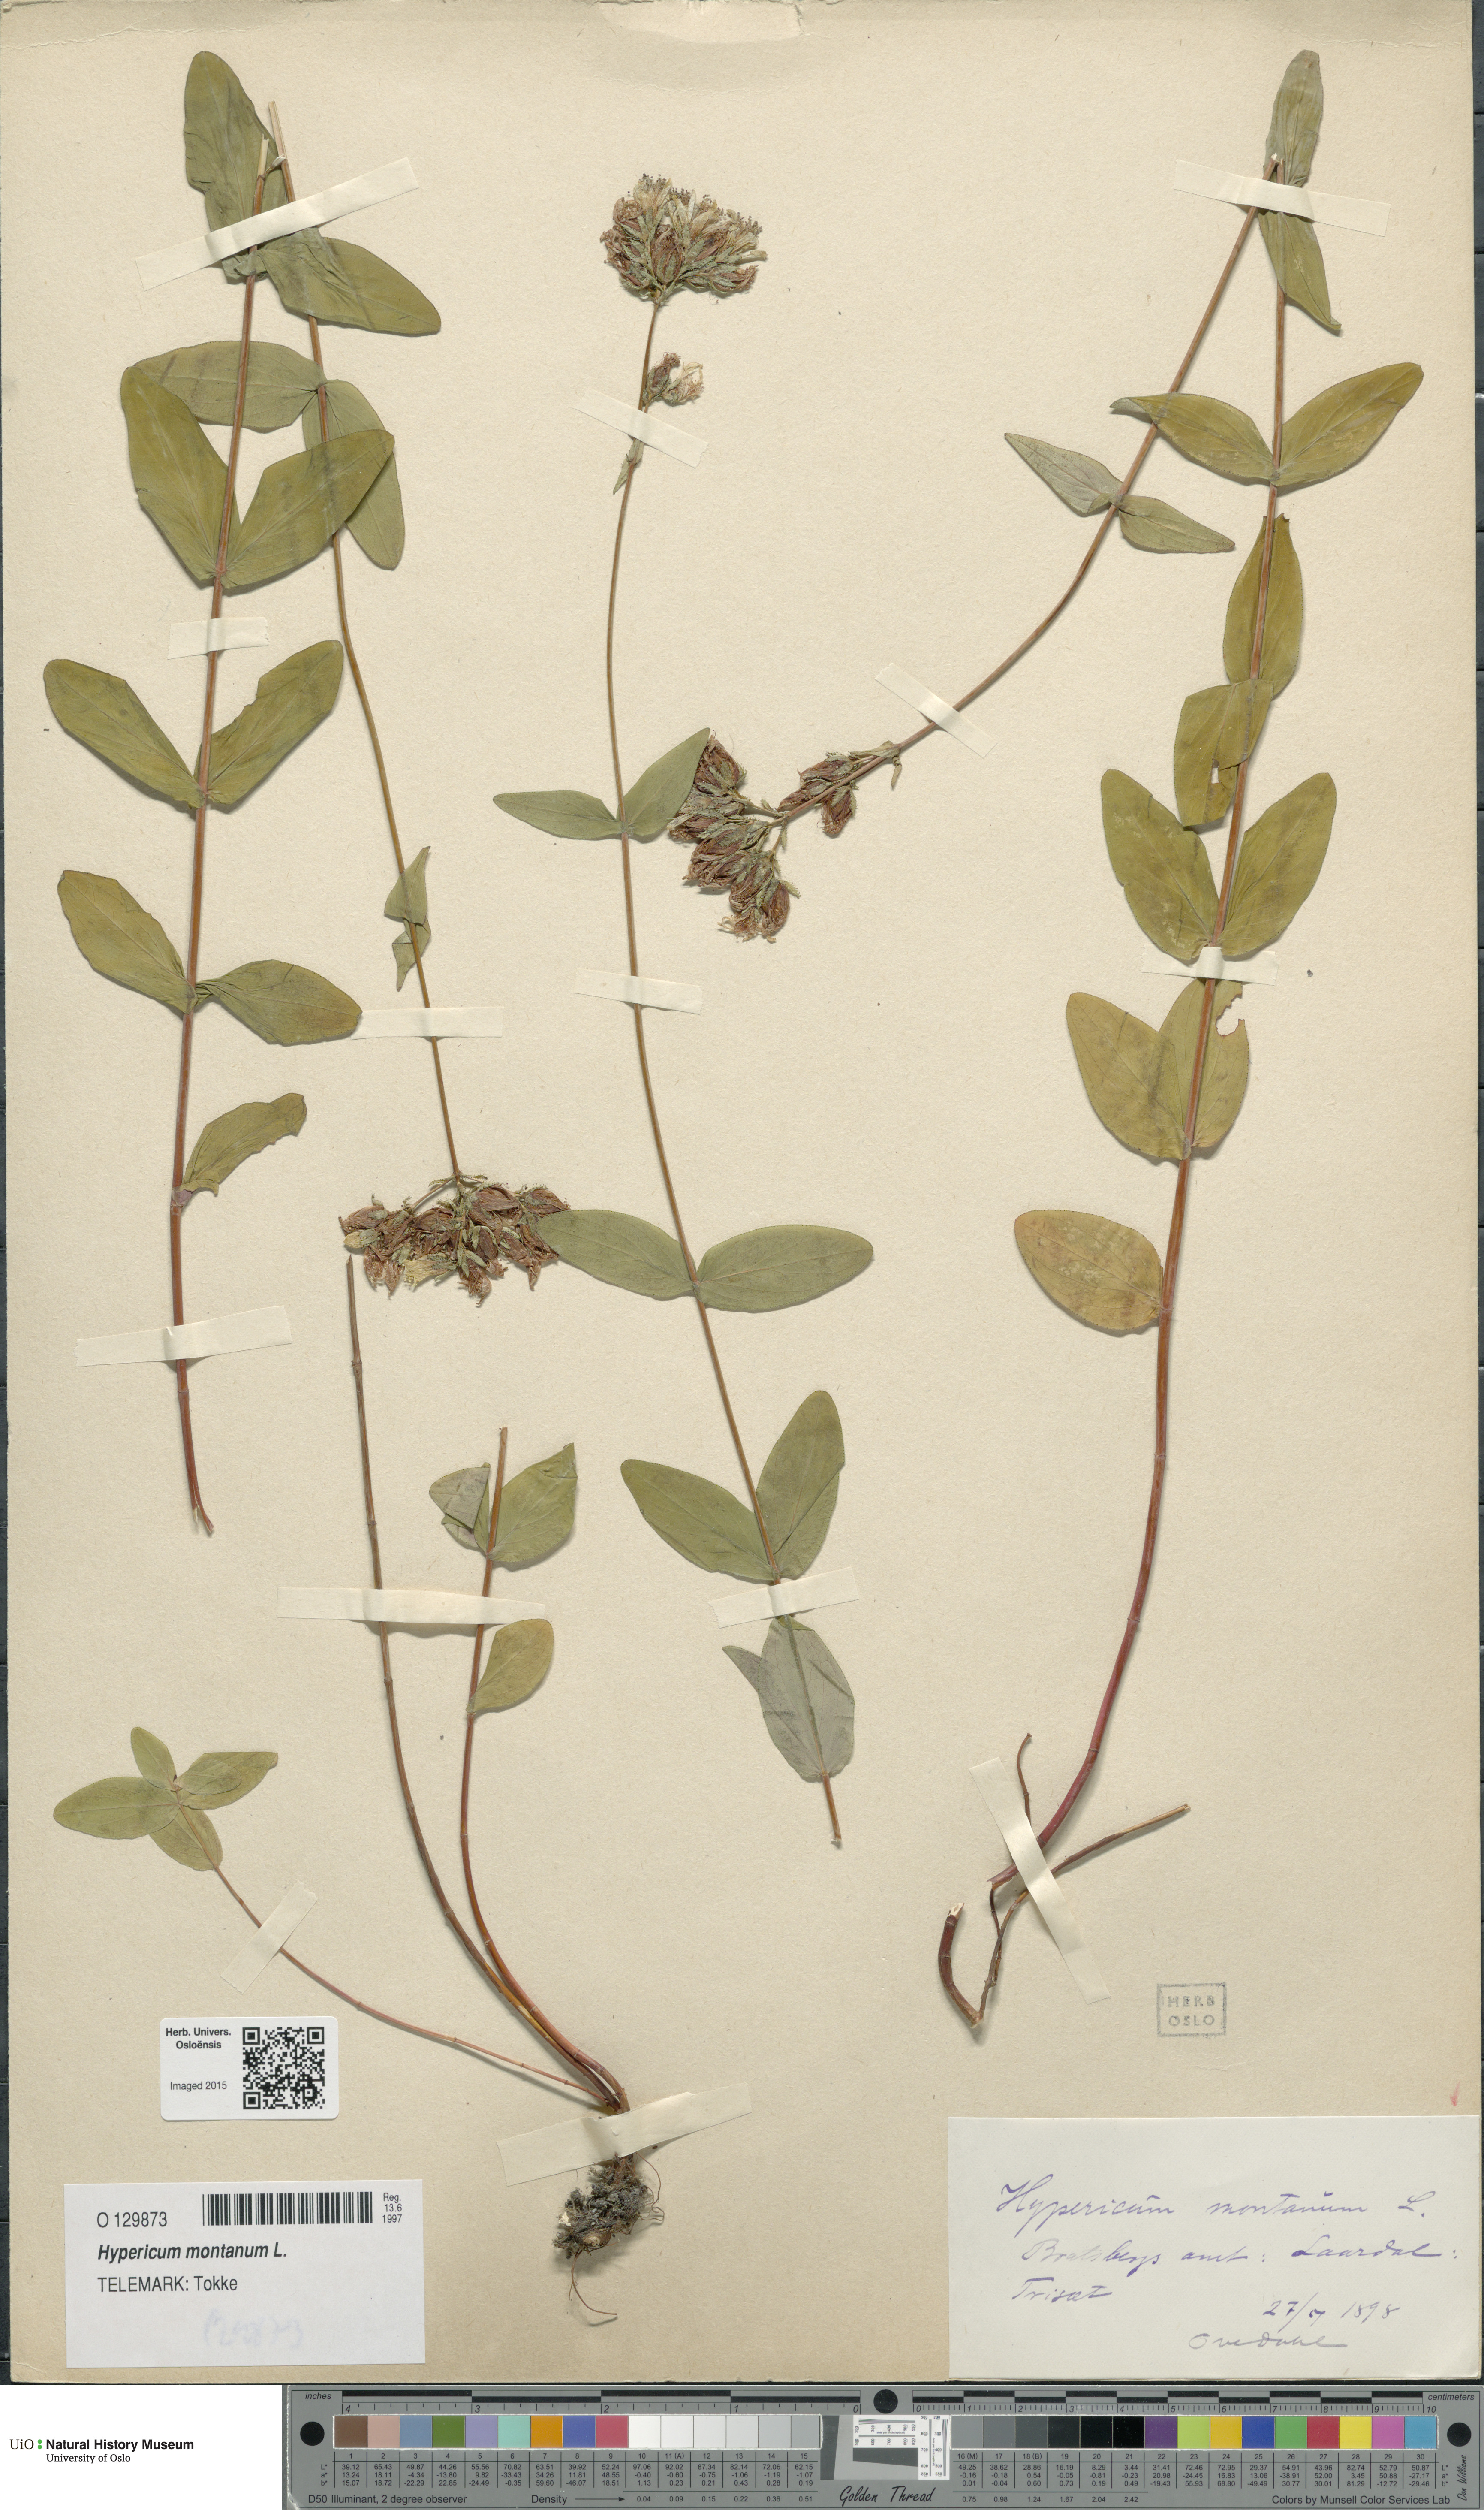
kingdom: Plantae
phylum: Tracheophyta
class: Magnoliopsida
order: Malpighiales
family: Hypericaceae
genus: Hypericum
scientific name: Hypericum montanum
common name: Pale st. john's-wort
